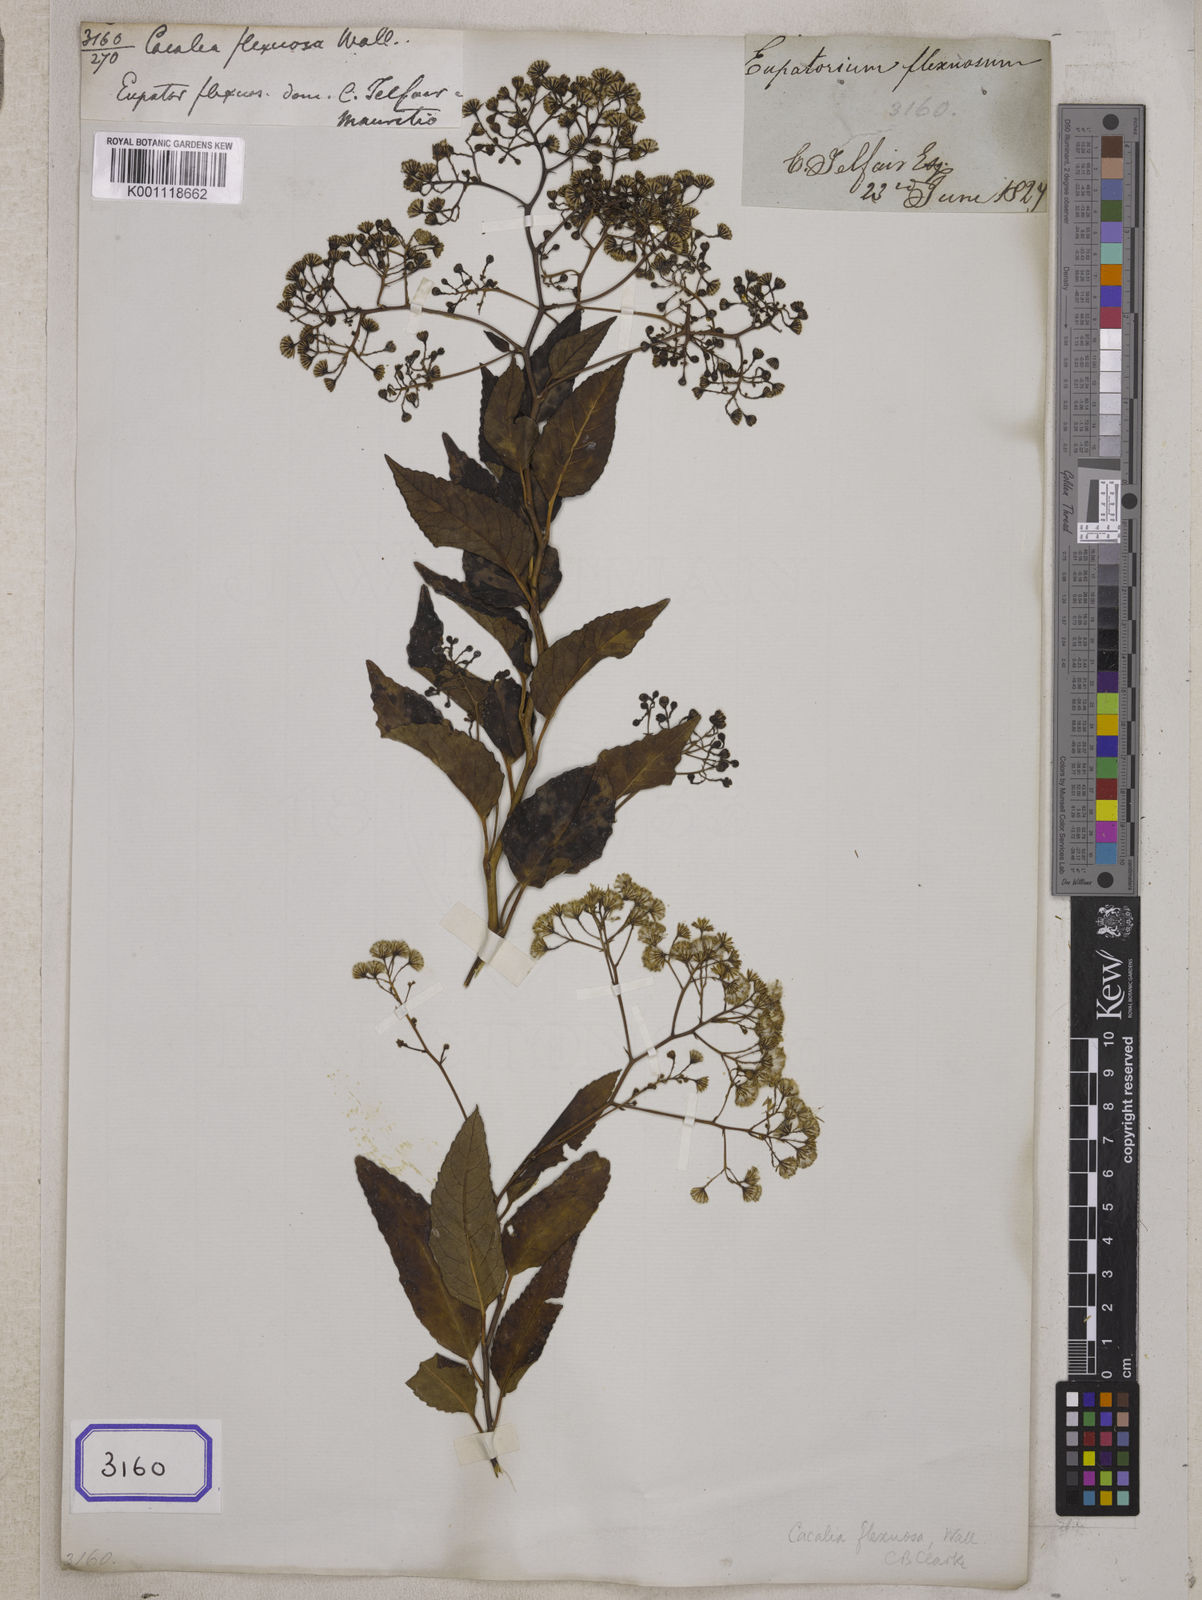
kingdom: Plantae
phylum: Tracheophyta
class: Magnoliopsida
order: Asterales
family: Asteraceae
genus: Adenostyles
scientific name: Adenostyles Cacalia scandens
